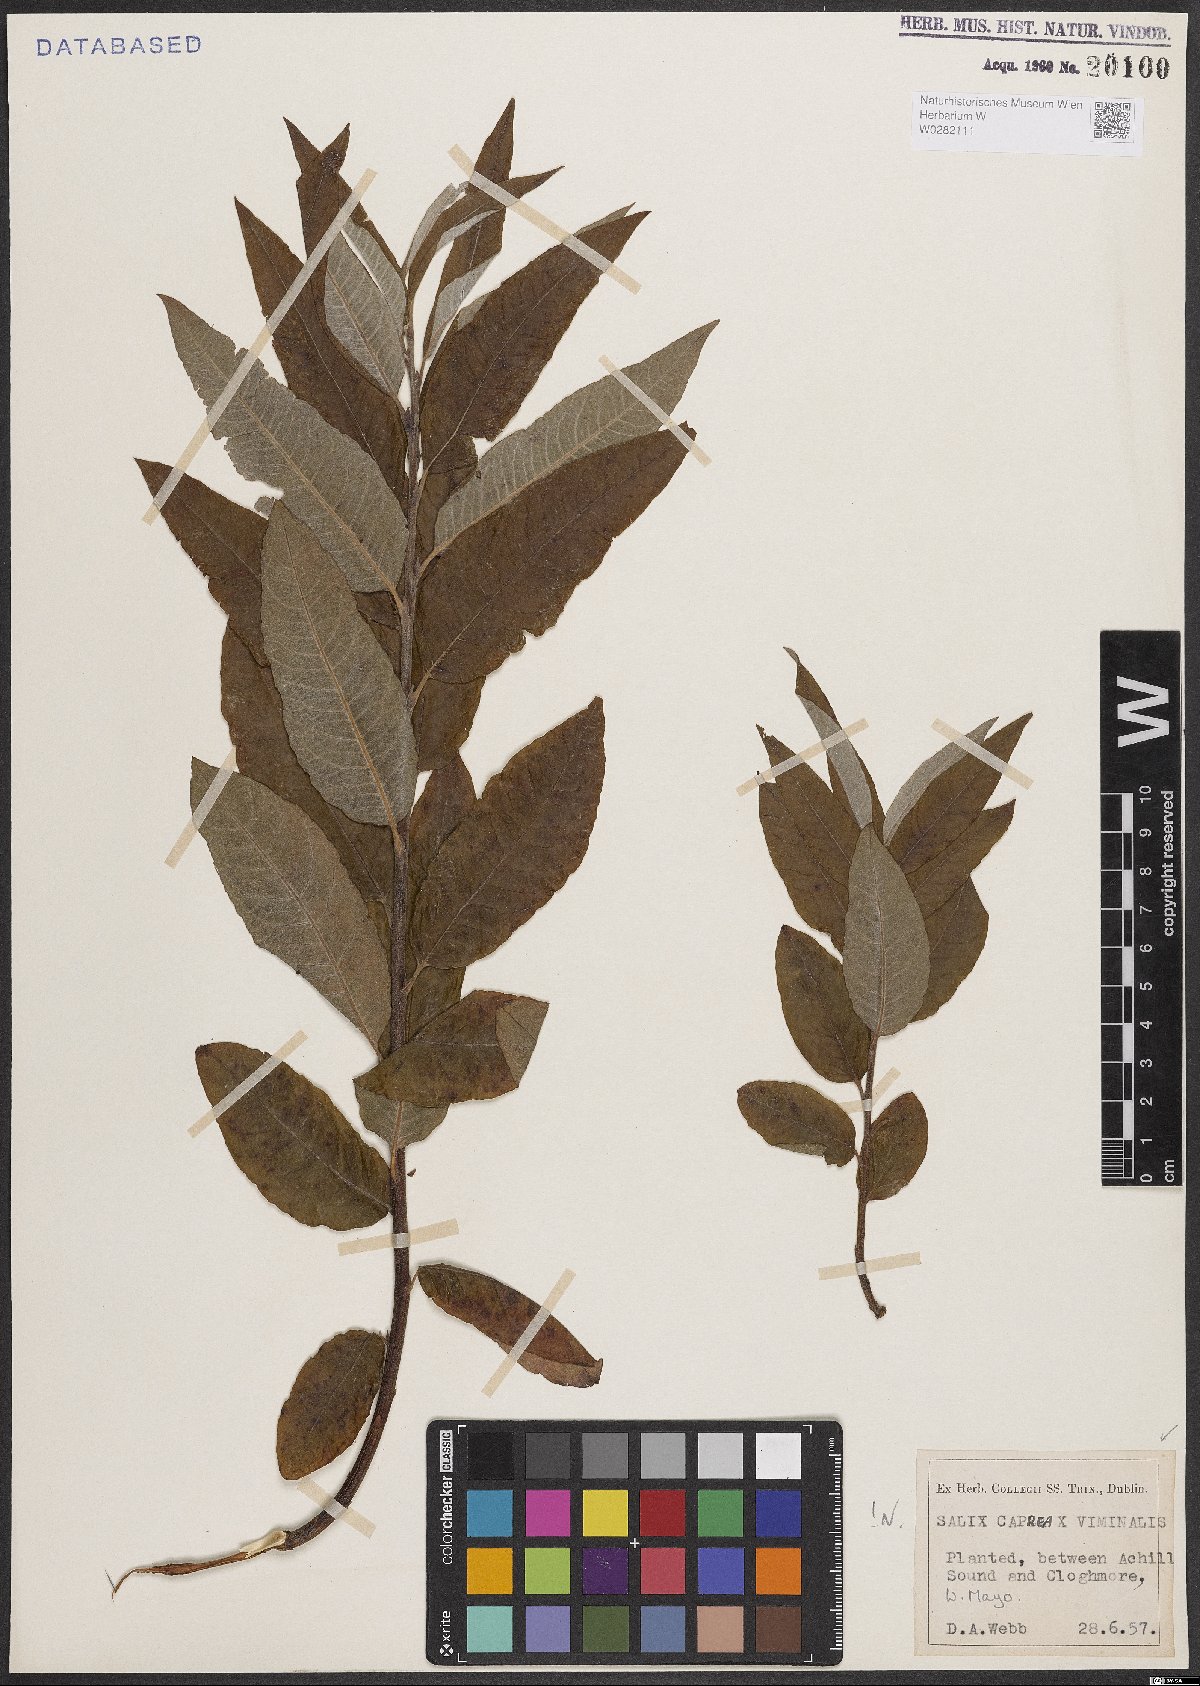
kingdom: Plantae
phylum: Tracheophyta
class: Magnoliopsida
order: Malpighiales
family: Salicaceae
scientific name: Salicaceae
